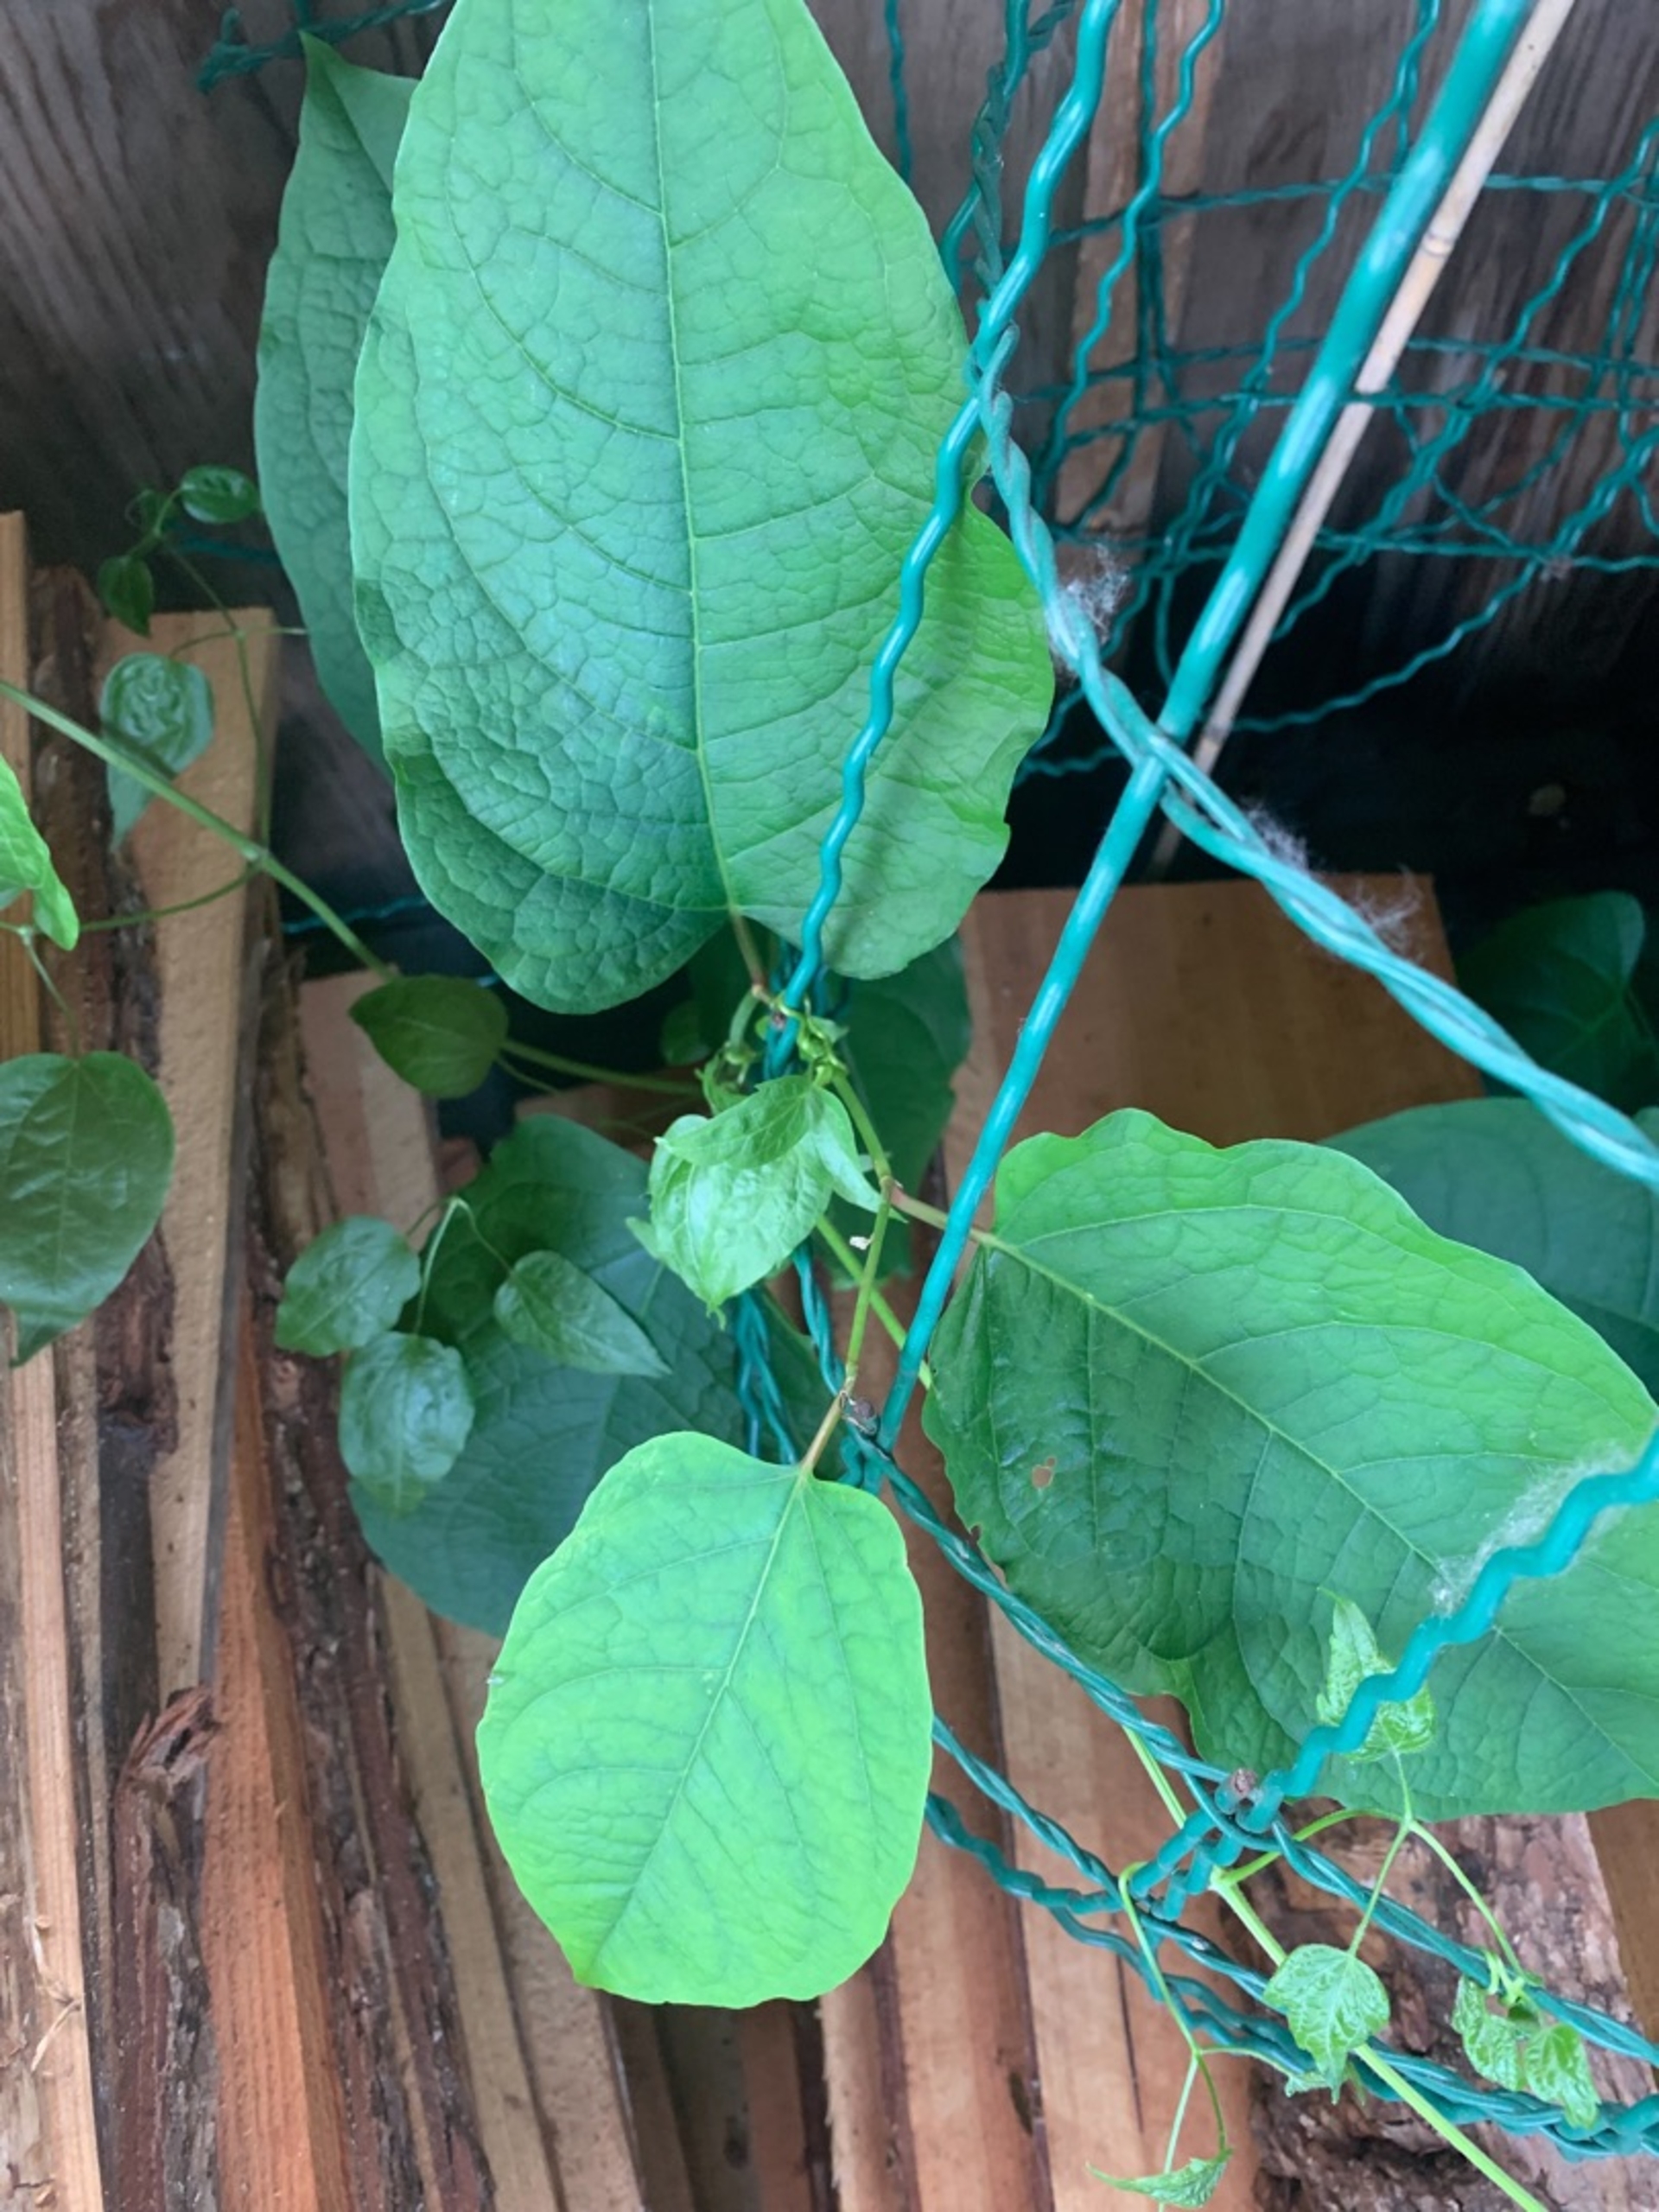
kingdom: Plantae
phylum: Tracheophyta
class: Magnoliopsida
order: Caryophyllales
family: Polygonaceae
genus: Reynoutria
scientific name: Reynoutria sachalinensis
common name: Kæmpe-pileurt
